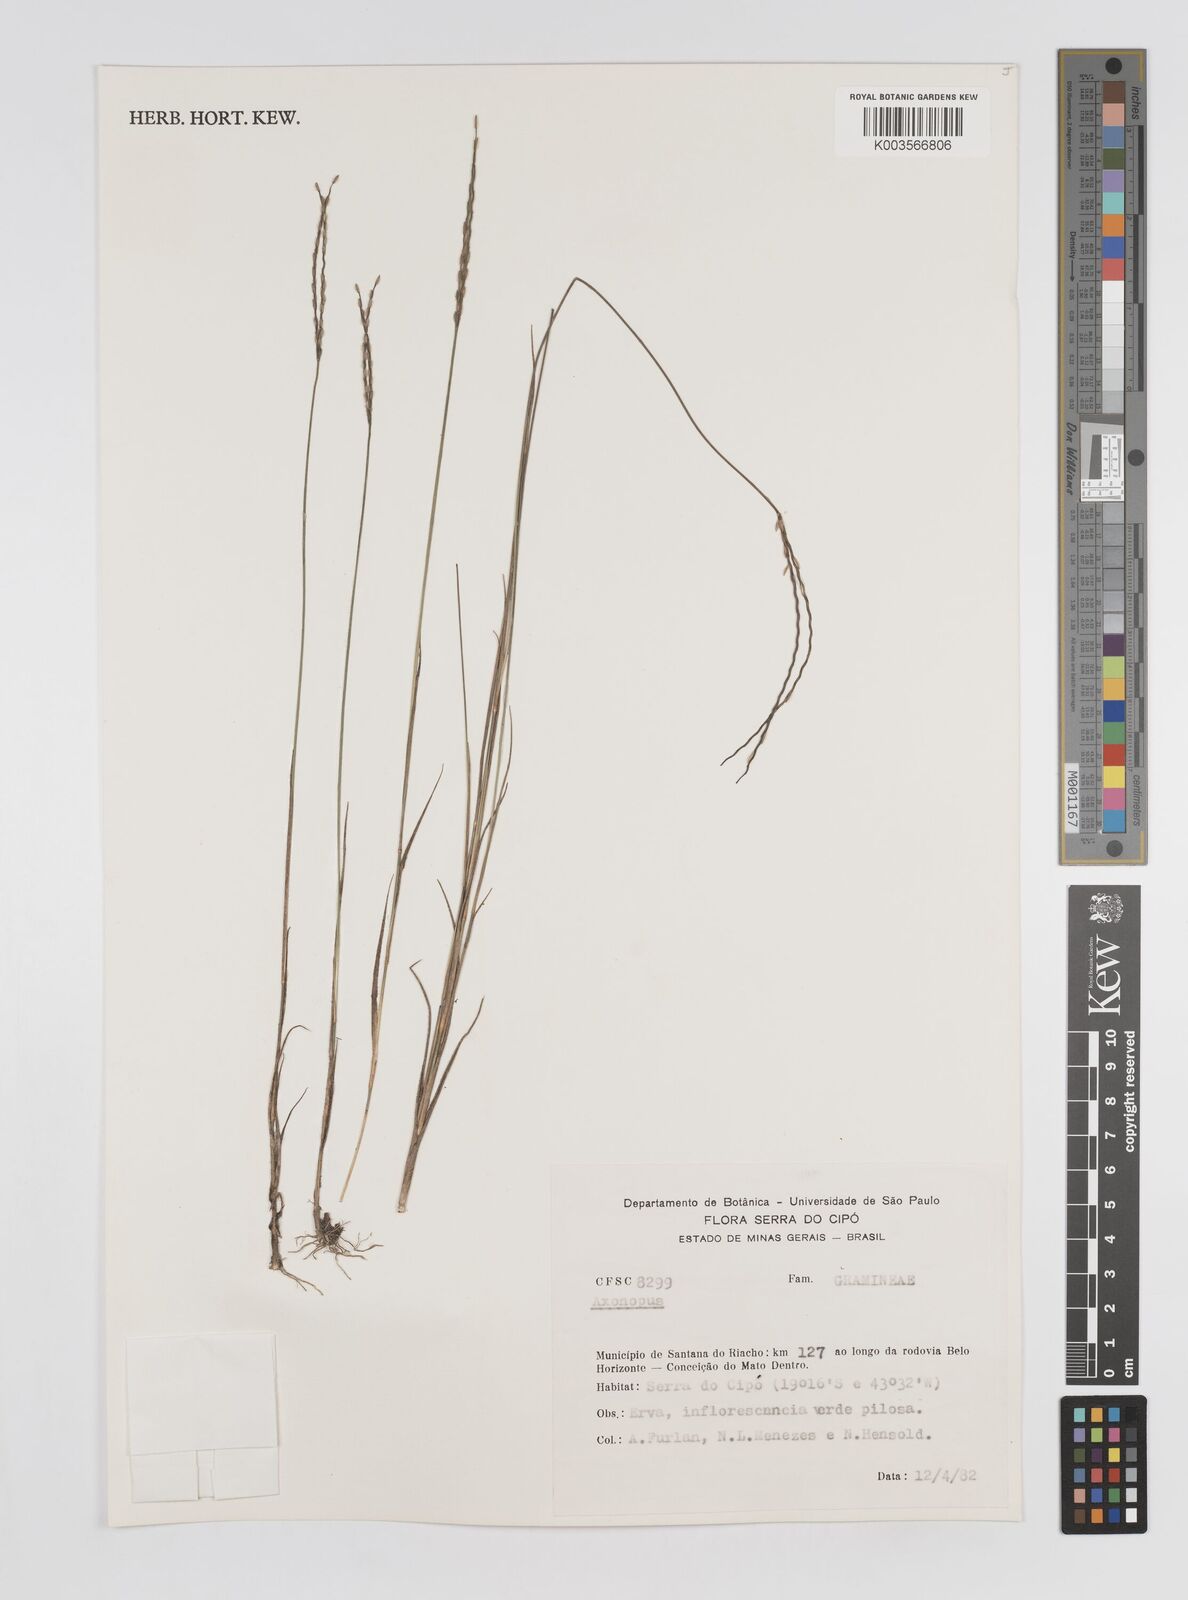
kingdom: Plantae
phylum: Tracheophyta
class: Liliopsida
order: Poales
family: Poaceae
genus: Axonopus
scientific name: Axonopus fastigiatus
